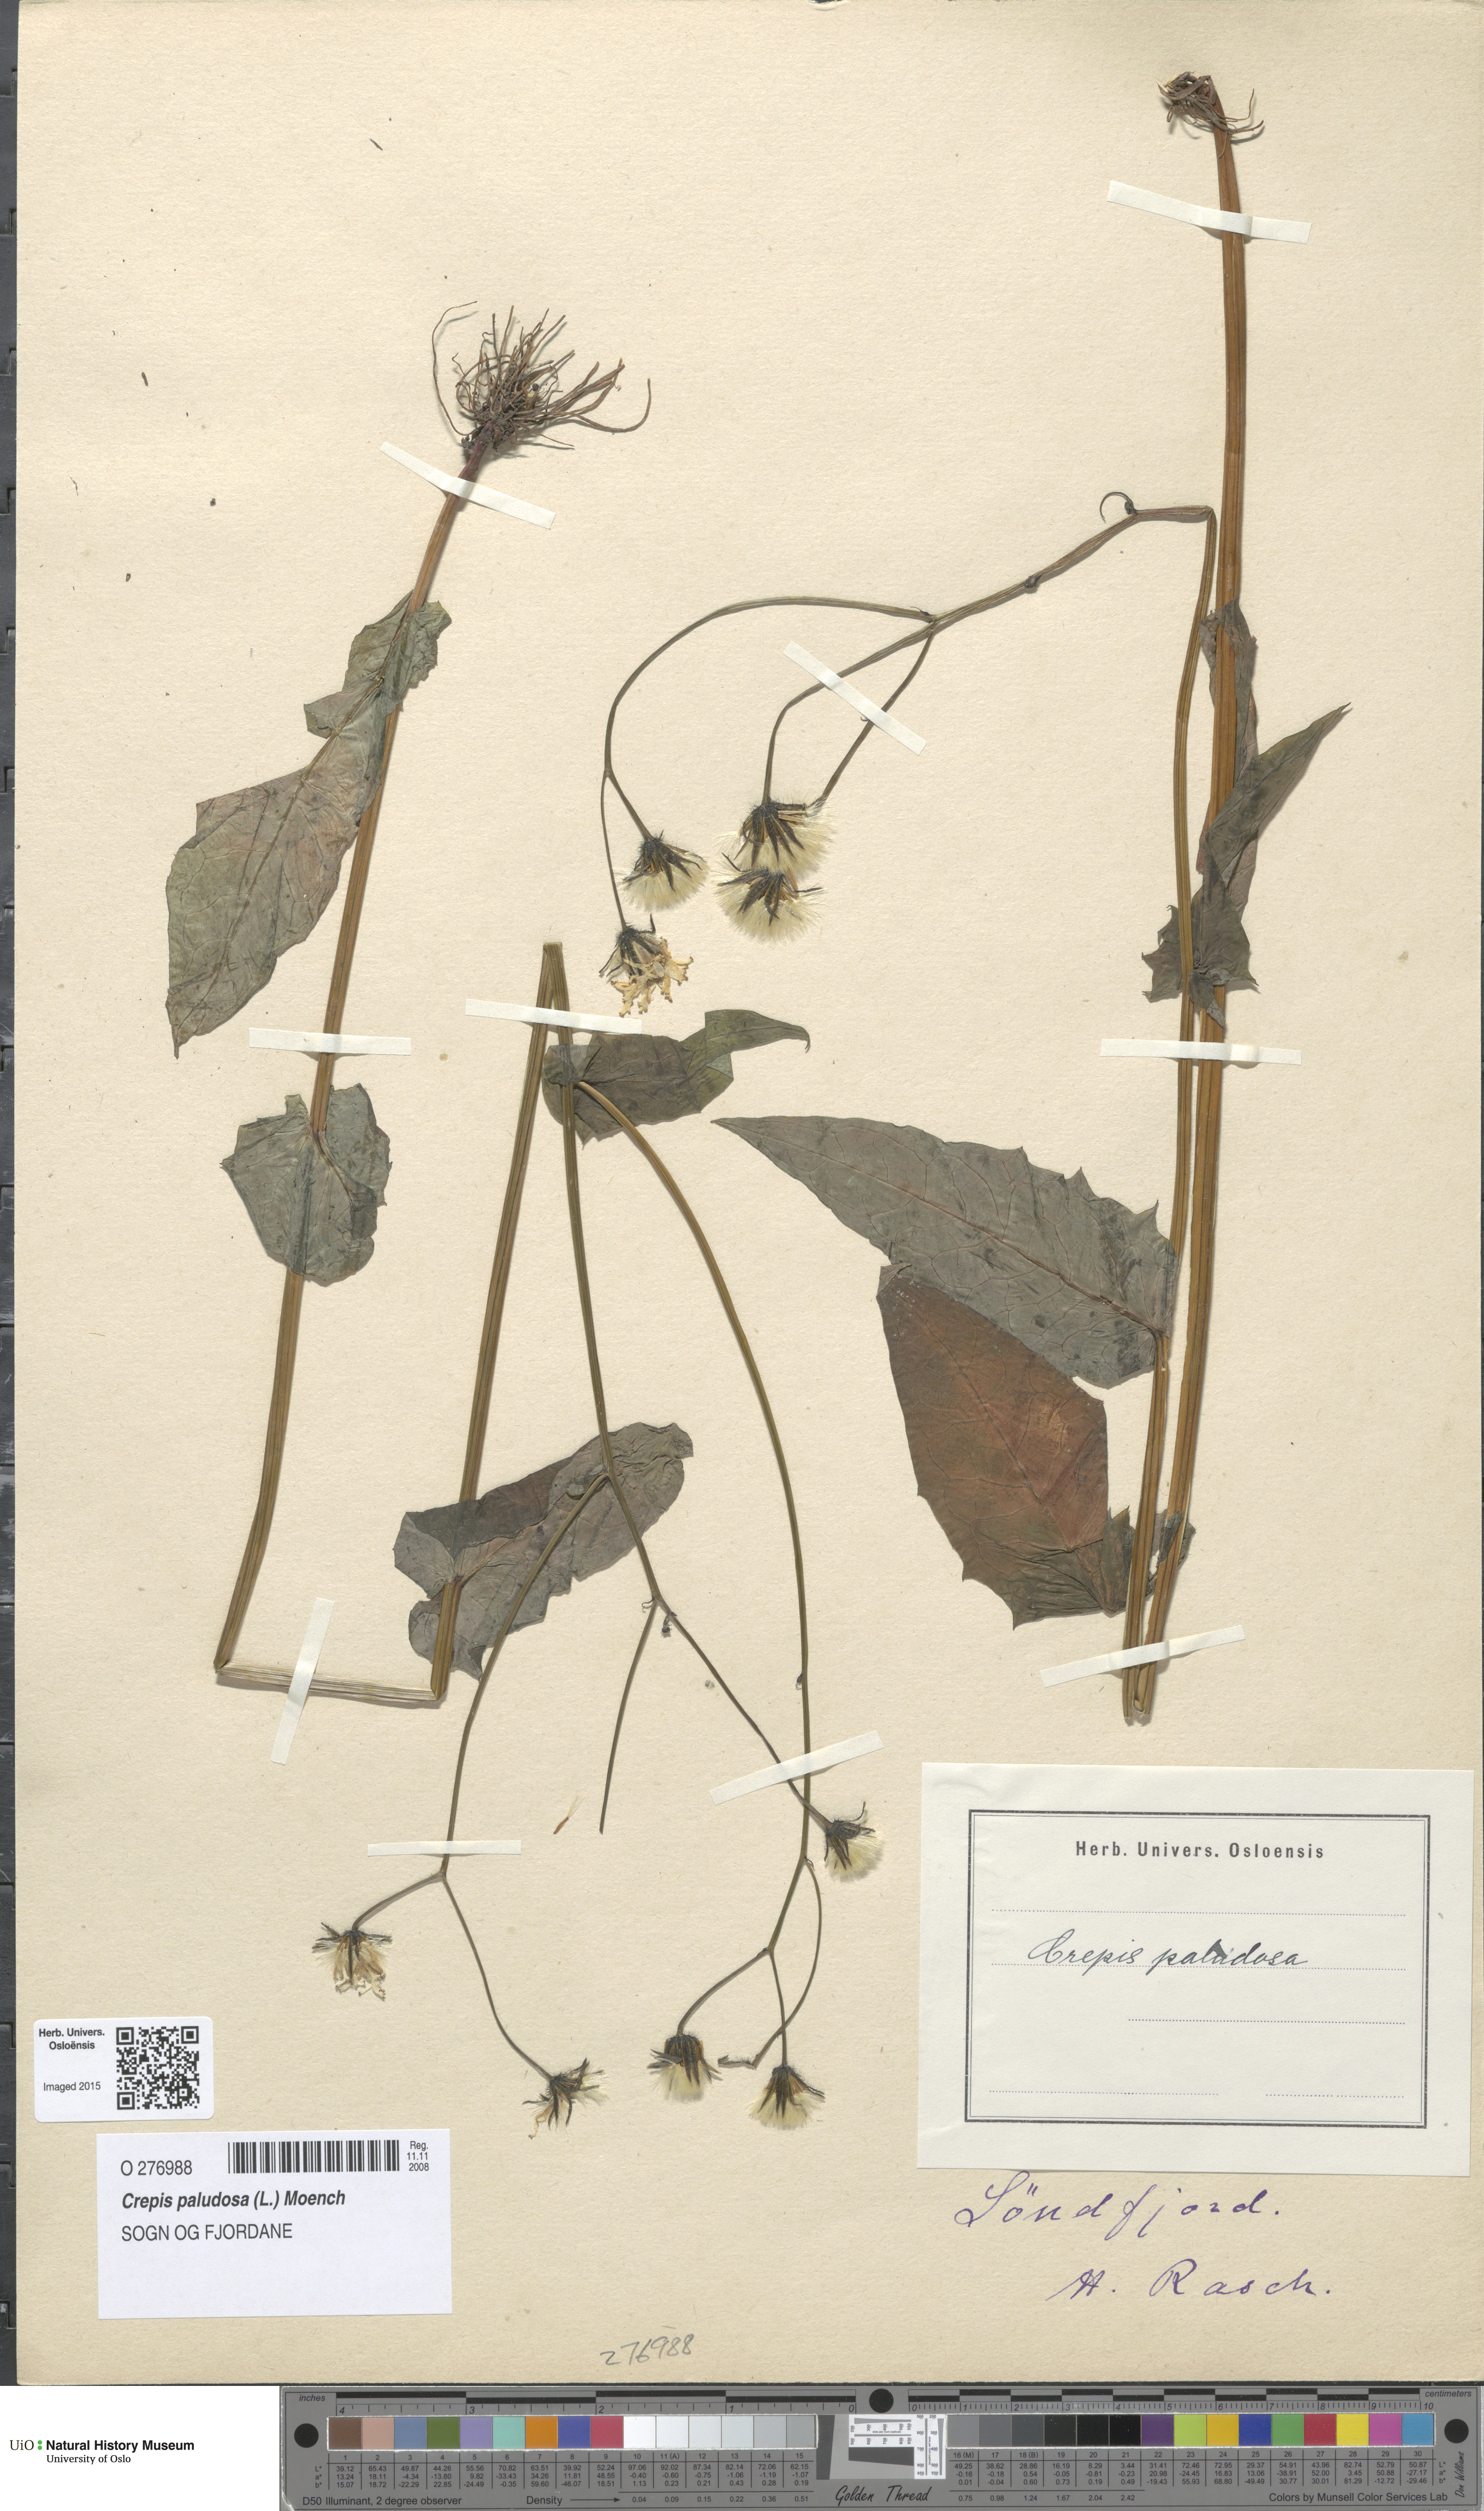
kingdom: Plantae
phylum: Tracheophyta
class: Magnoliopsida
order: Asterales
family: Asteraceae
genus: Crepis
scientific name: Crepis paludosa
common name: Marsh hawk's-beard
